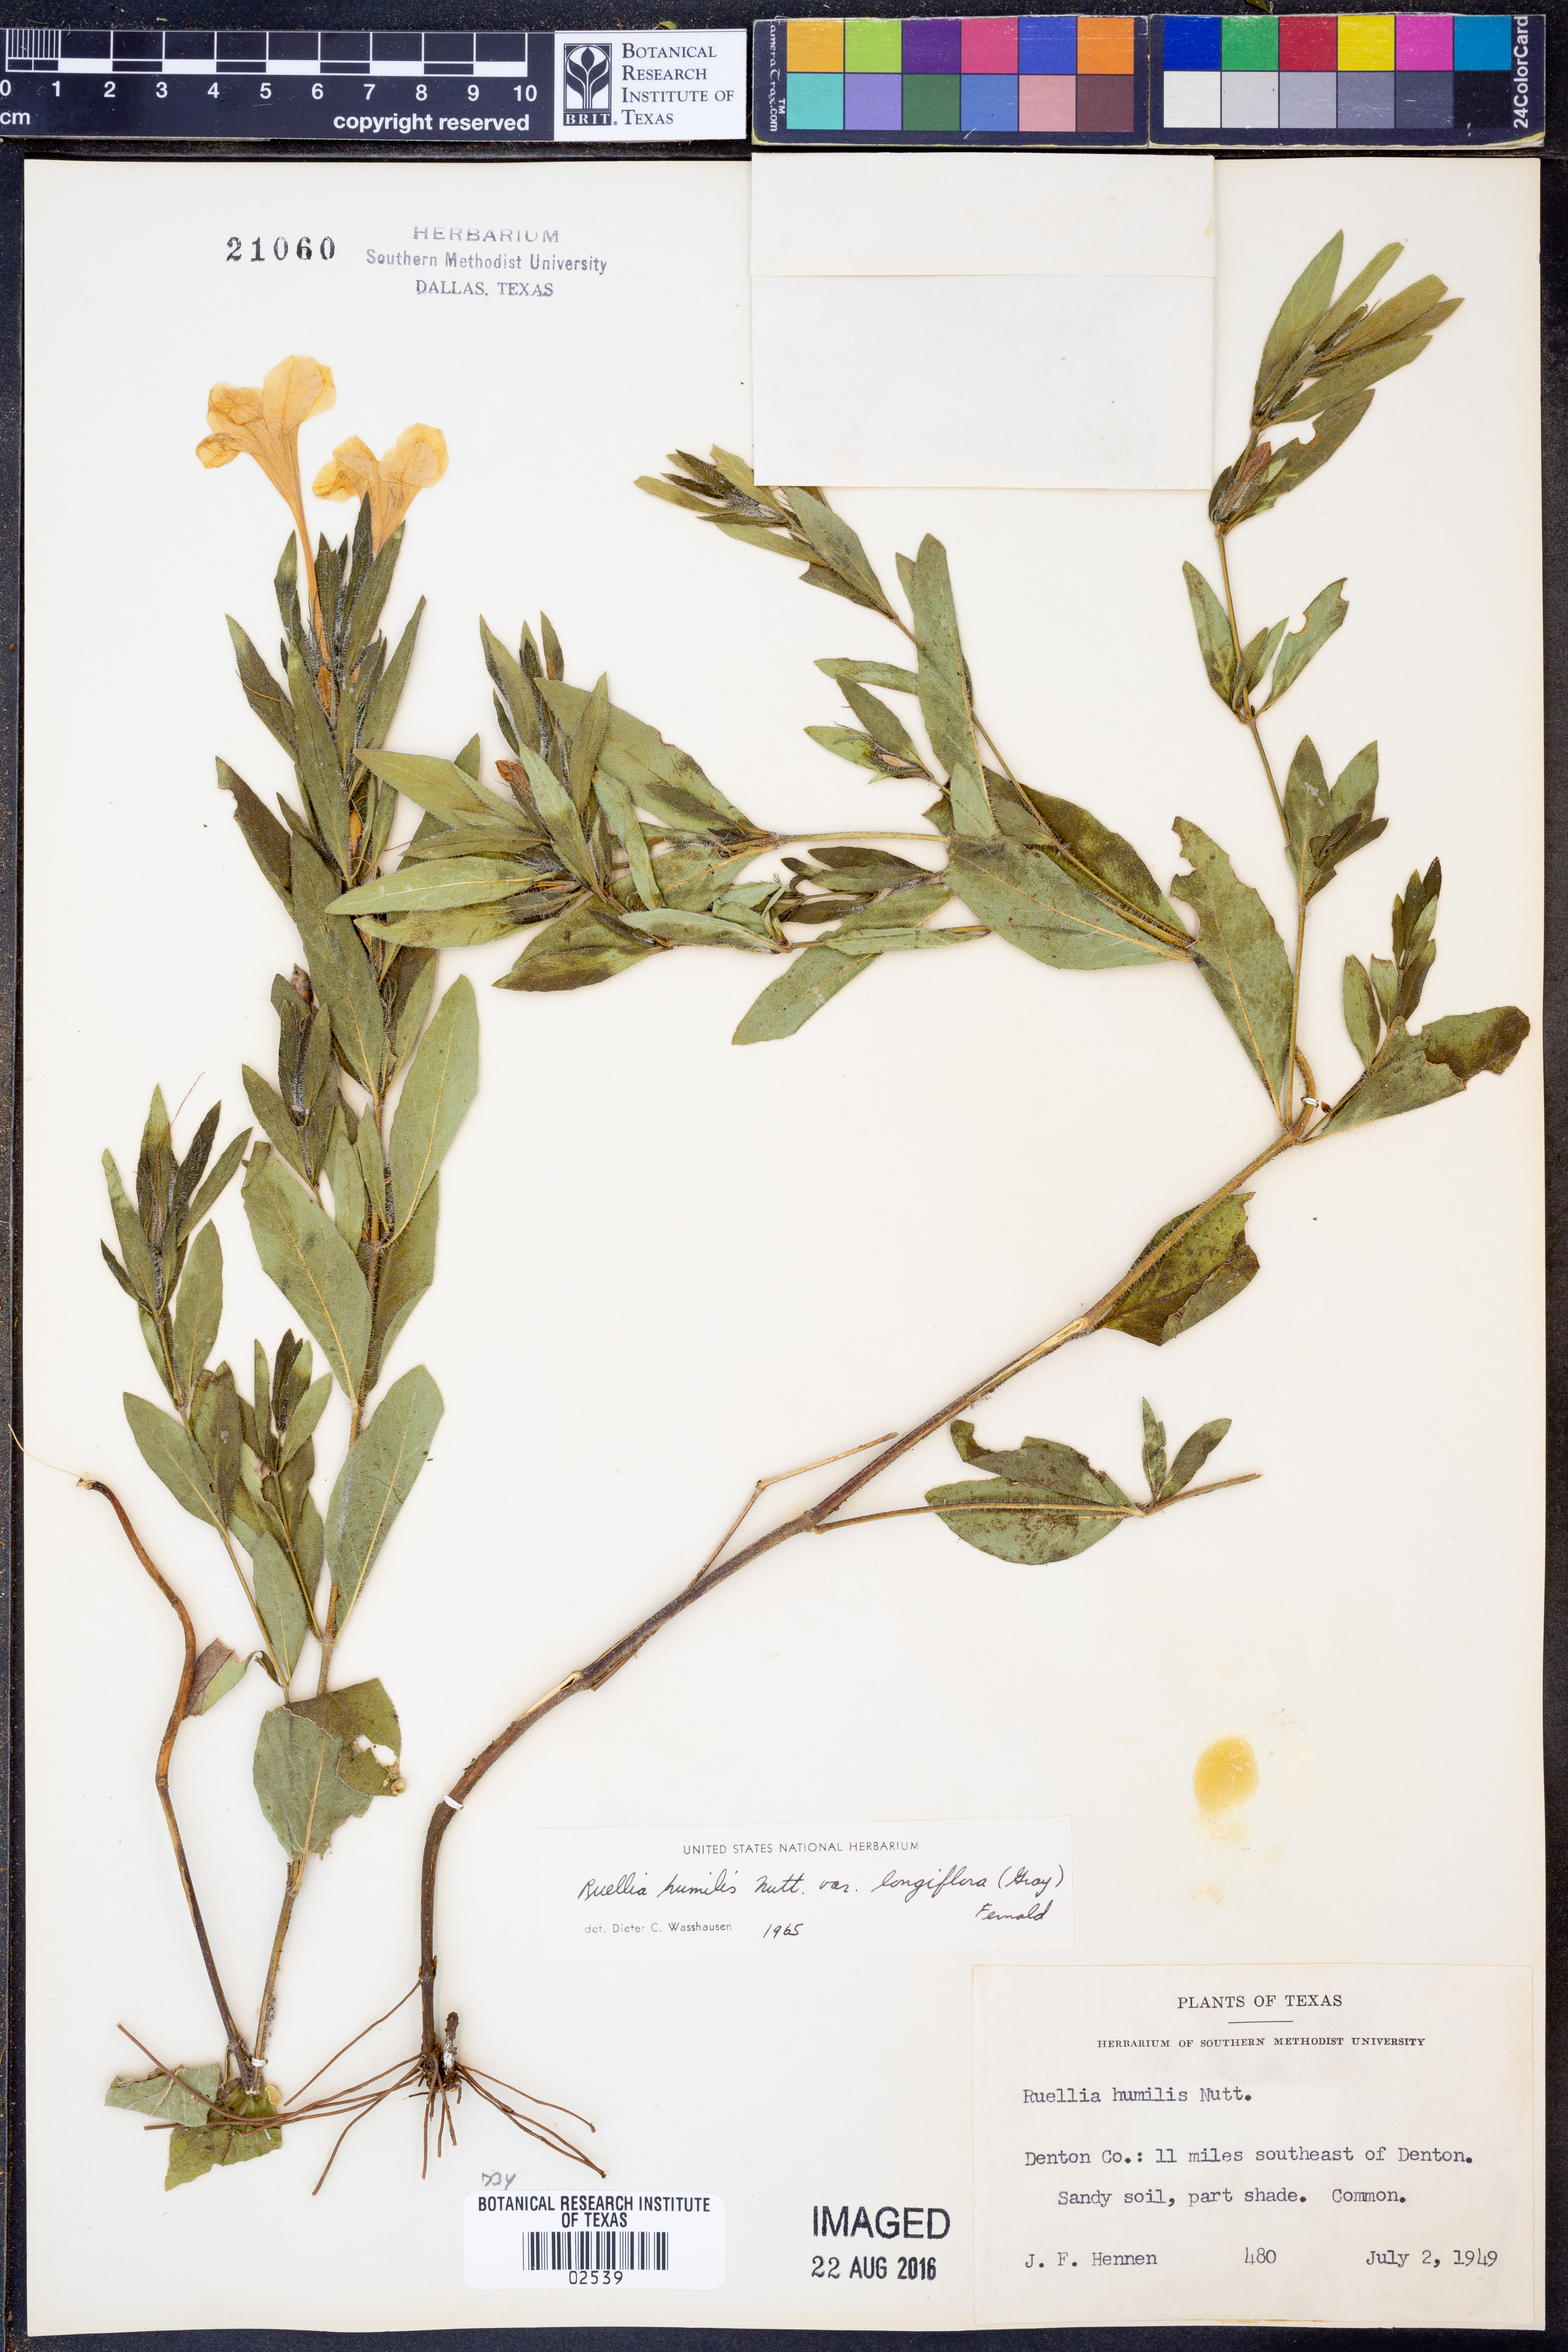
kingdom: Plantae
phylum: Tracheophyta
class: Magnoliopsida
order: Lamiales
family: Acanthaceae
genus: Ruellia
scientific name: Ruellia humilis
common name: Fringe-leaf ruellia
